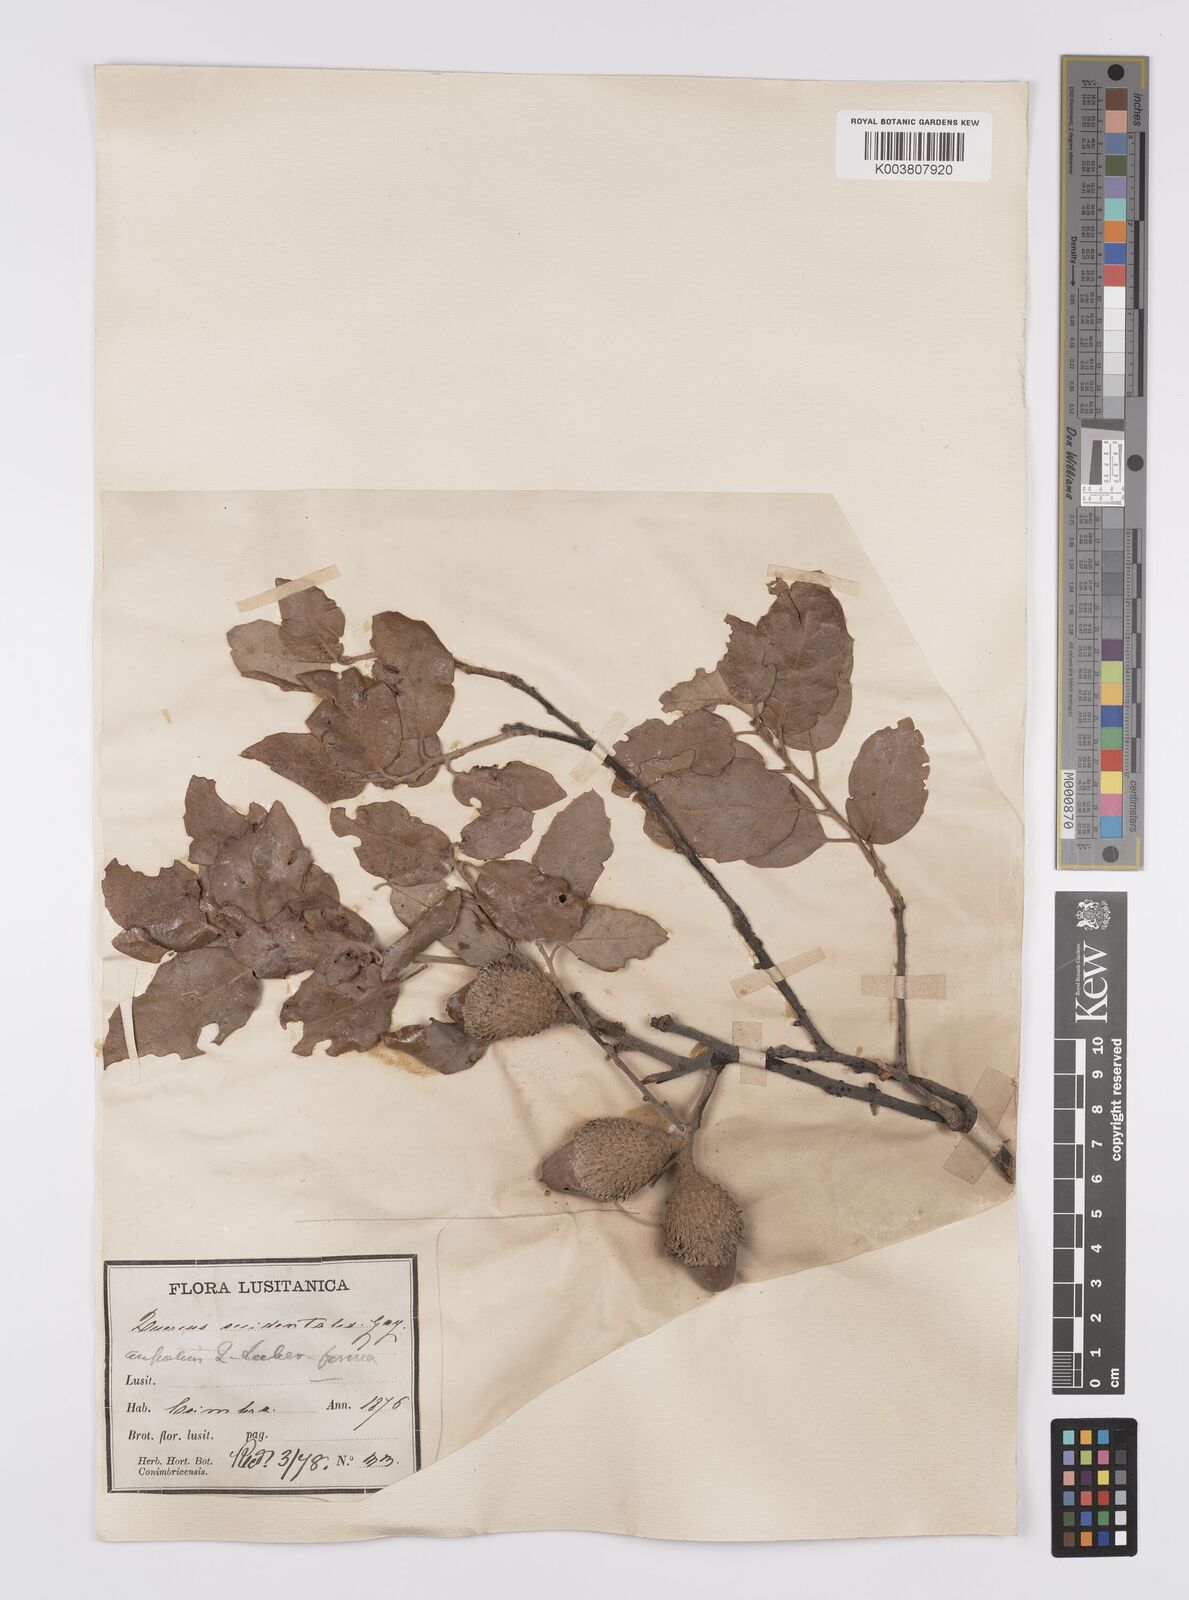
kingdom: Plantae
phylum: Tracheophyta
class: Magnoliopsida
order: Fagales
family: Fagaceae
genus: Quercus
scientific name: Quercus suber
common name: Cork oak
